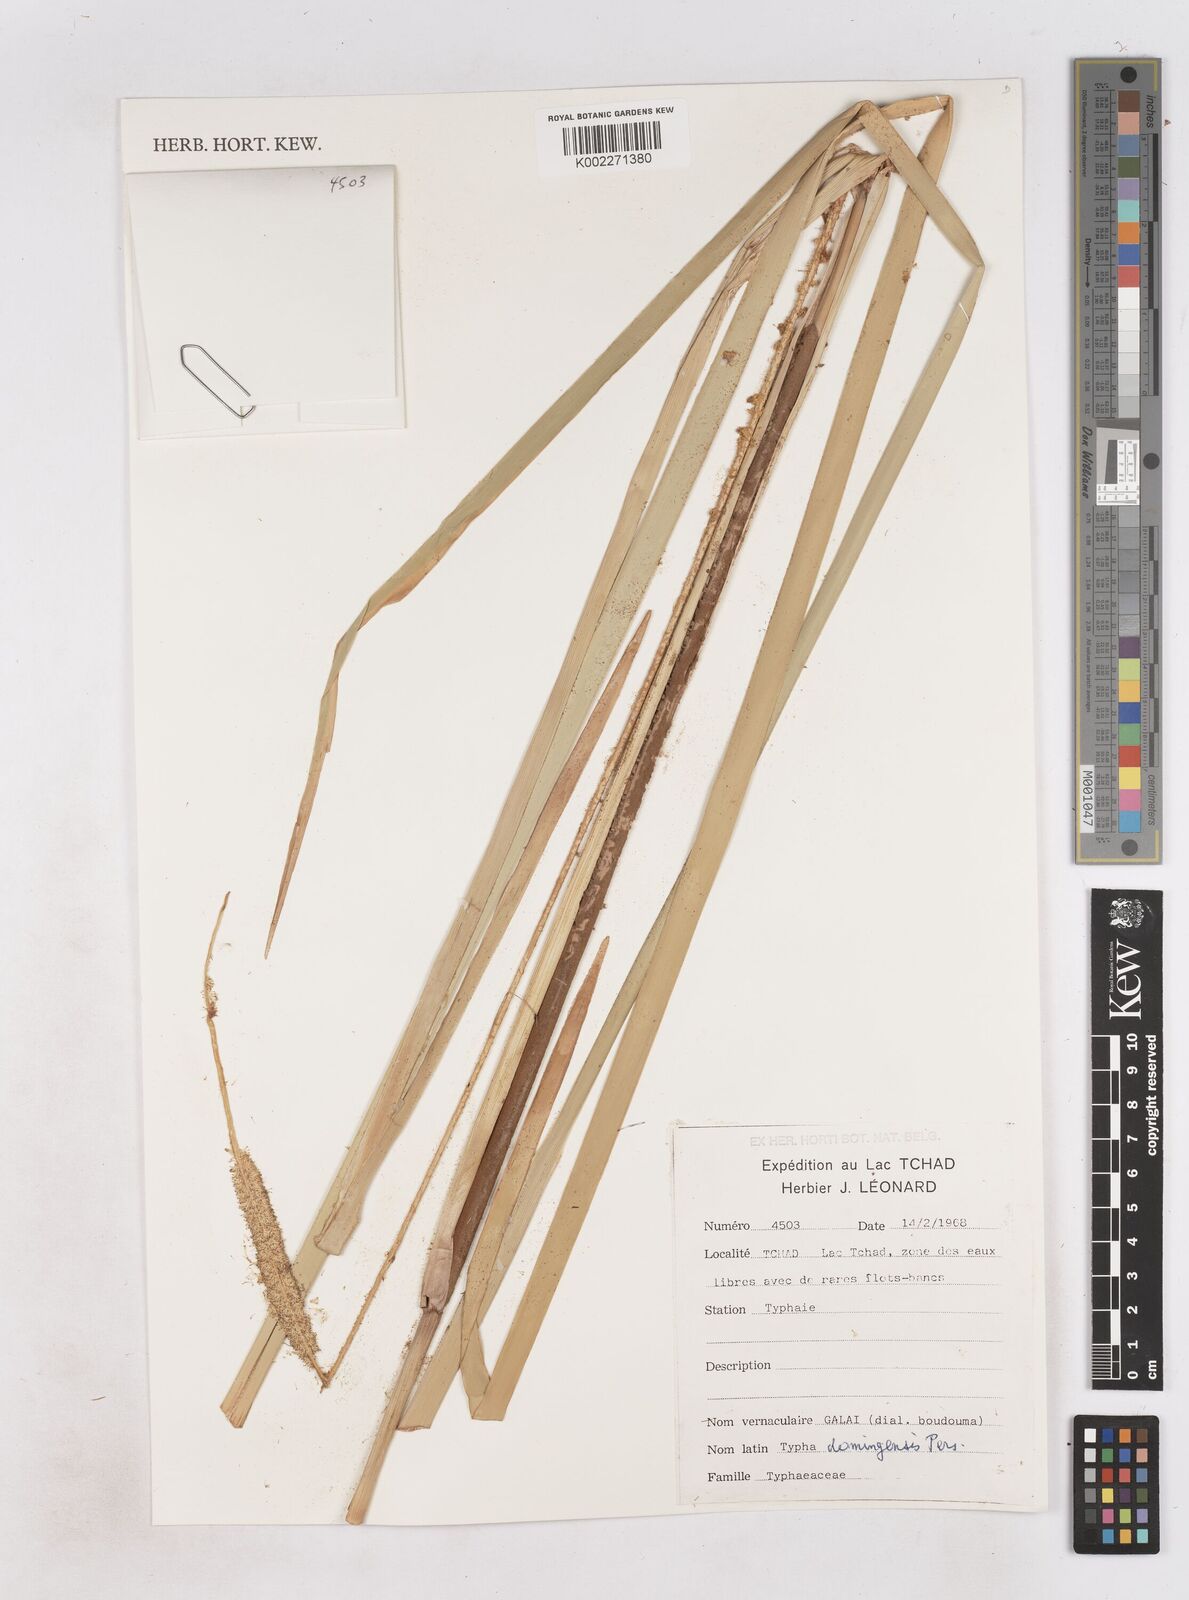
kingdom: Plantae
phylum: Tracheophyta
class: Liliopsida
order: Poales
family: Typhaceae
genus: Typha
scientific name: Typha domingensis
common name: Southern cattail
